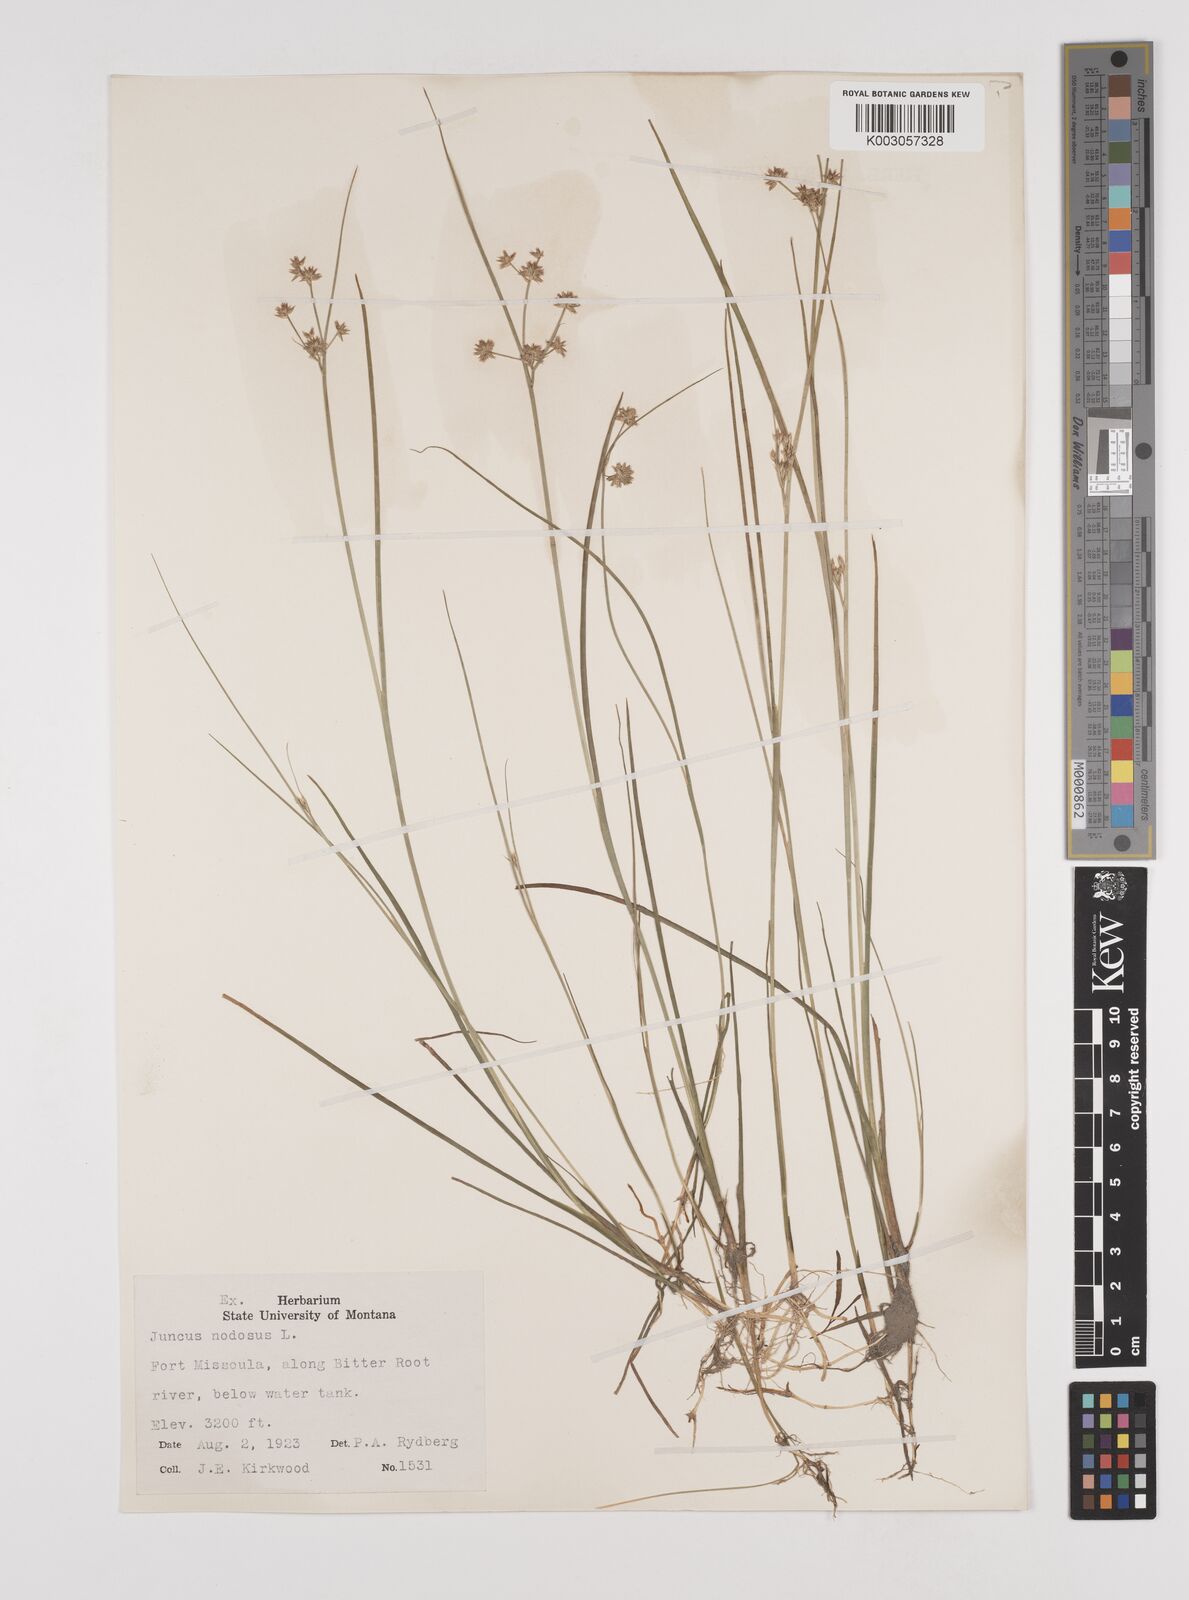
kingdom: Plantae
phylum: Tracheophyta
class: Liliopsida
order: Poales
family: Juncaceae
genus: Juncus
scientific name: Juncus nodosus
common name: Knotted rush
